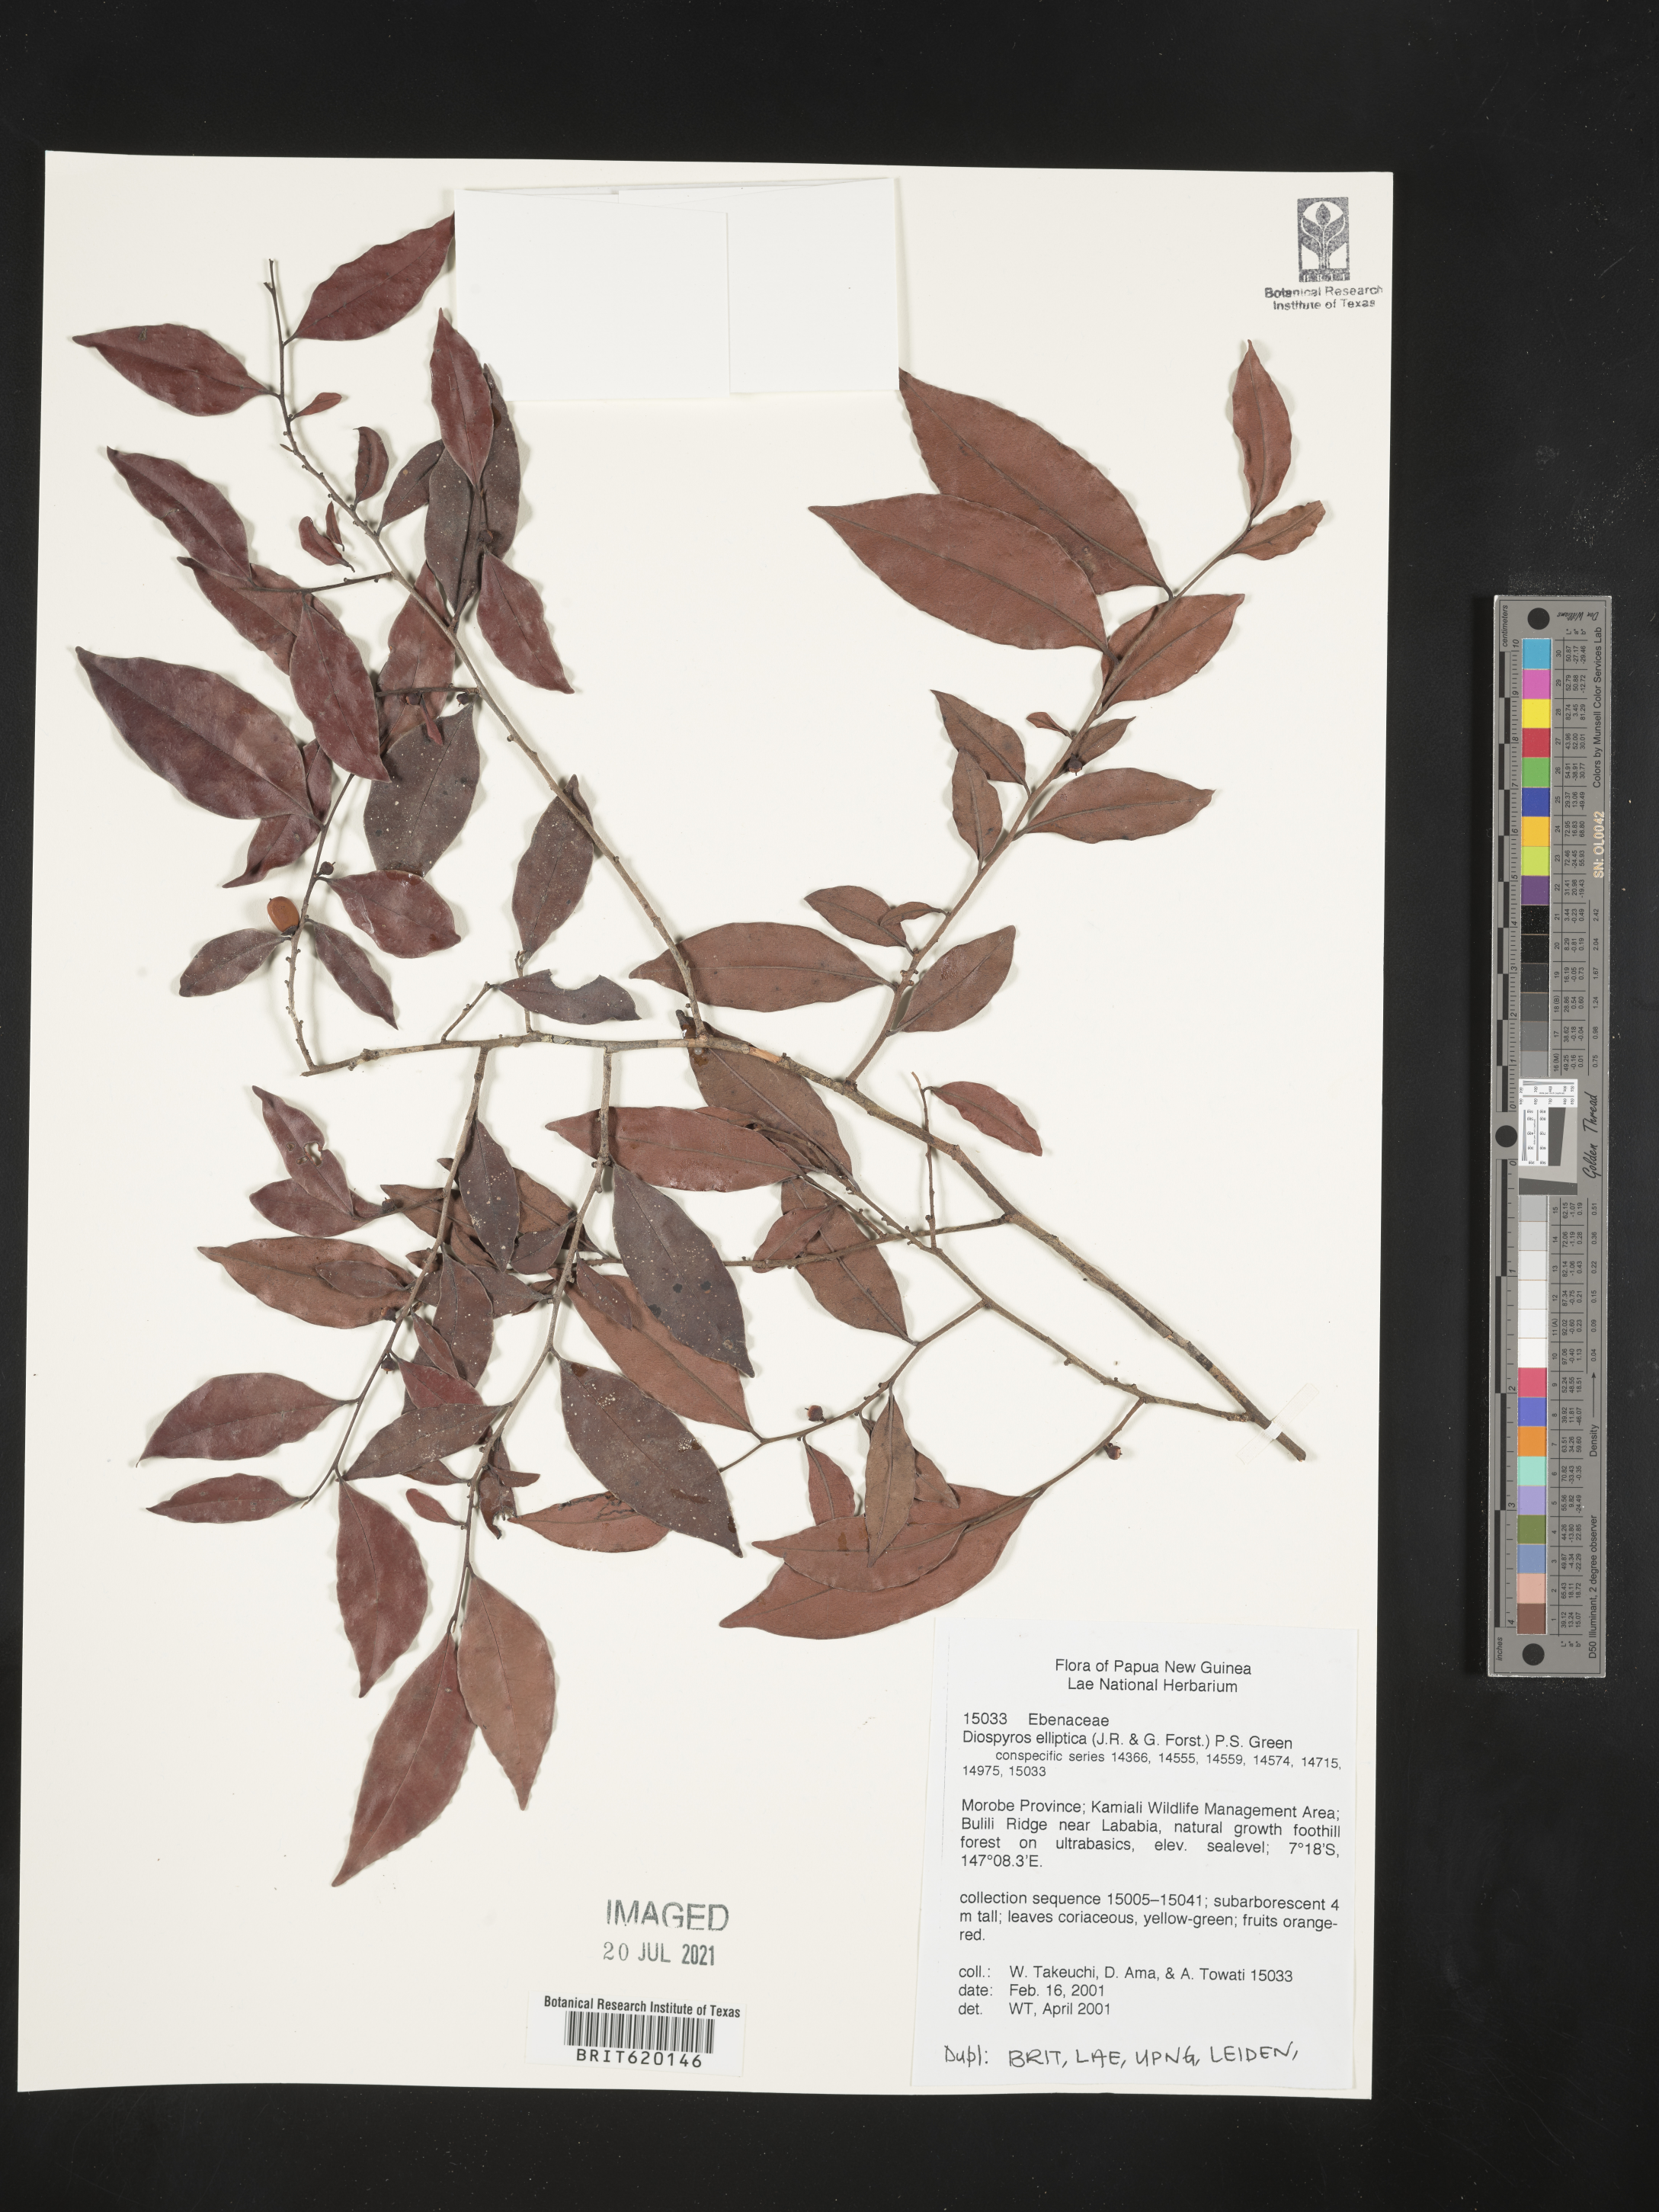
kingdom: Plantae
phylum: Tracheophyta
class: Magnoliopsida
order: Ericales
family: Ebenaceae
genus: Diospyros
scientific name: Diospyros elliptica
